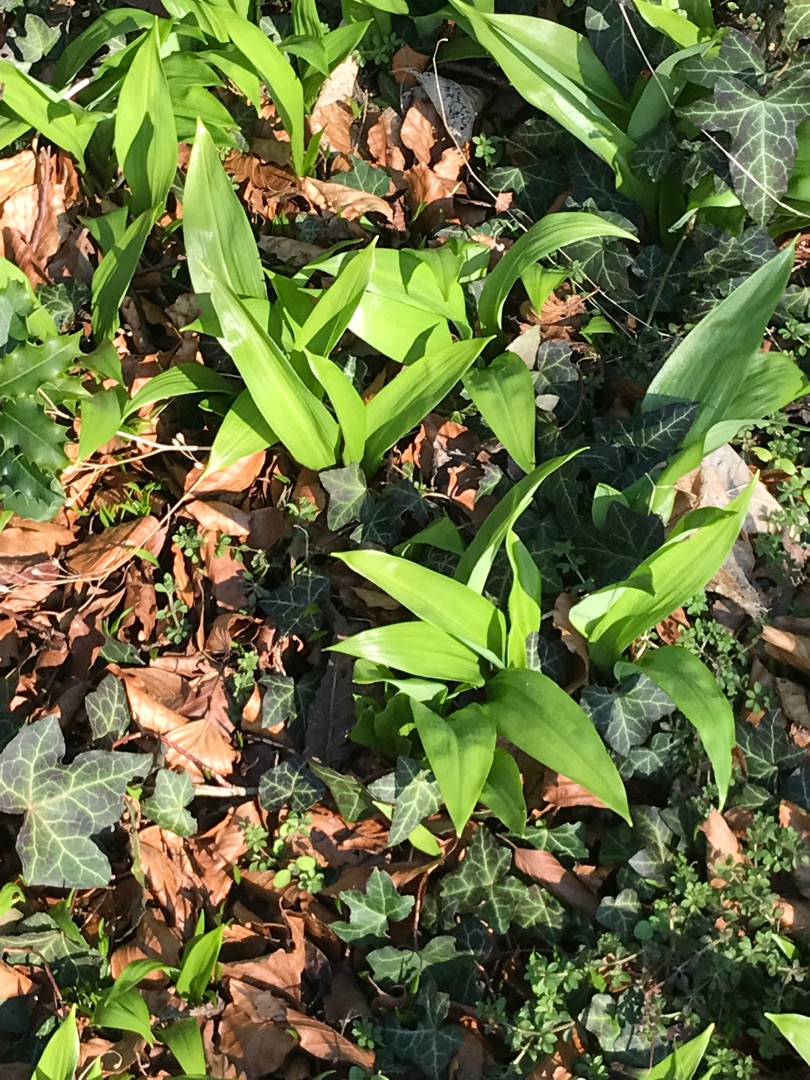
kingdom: Plantae
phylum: Tracheophyta
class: Liliopsida
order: Asparagales
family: Amaryllidaceae
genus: Allium
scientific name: Allium ursinum
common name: Rams-løg
